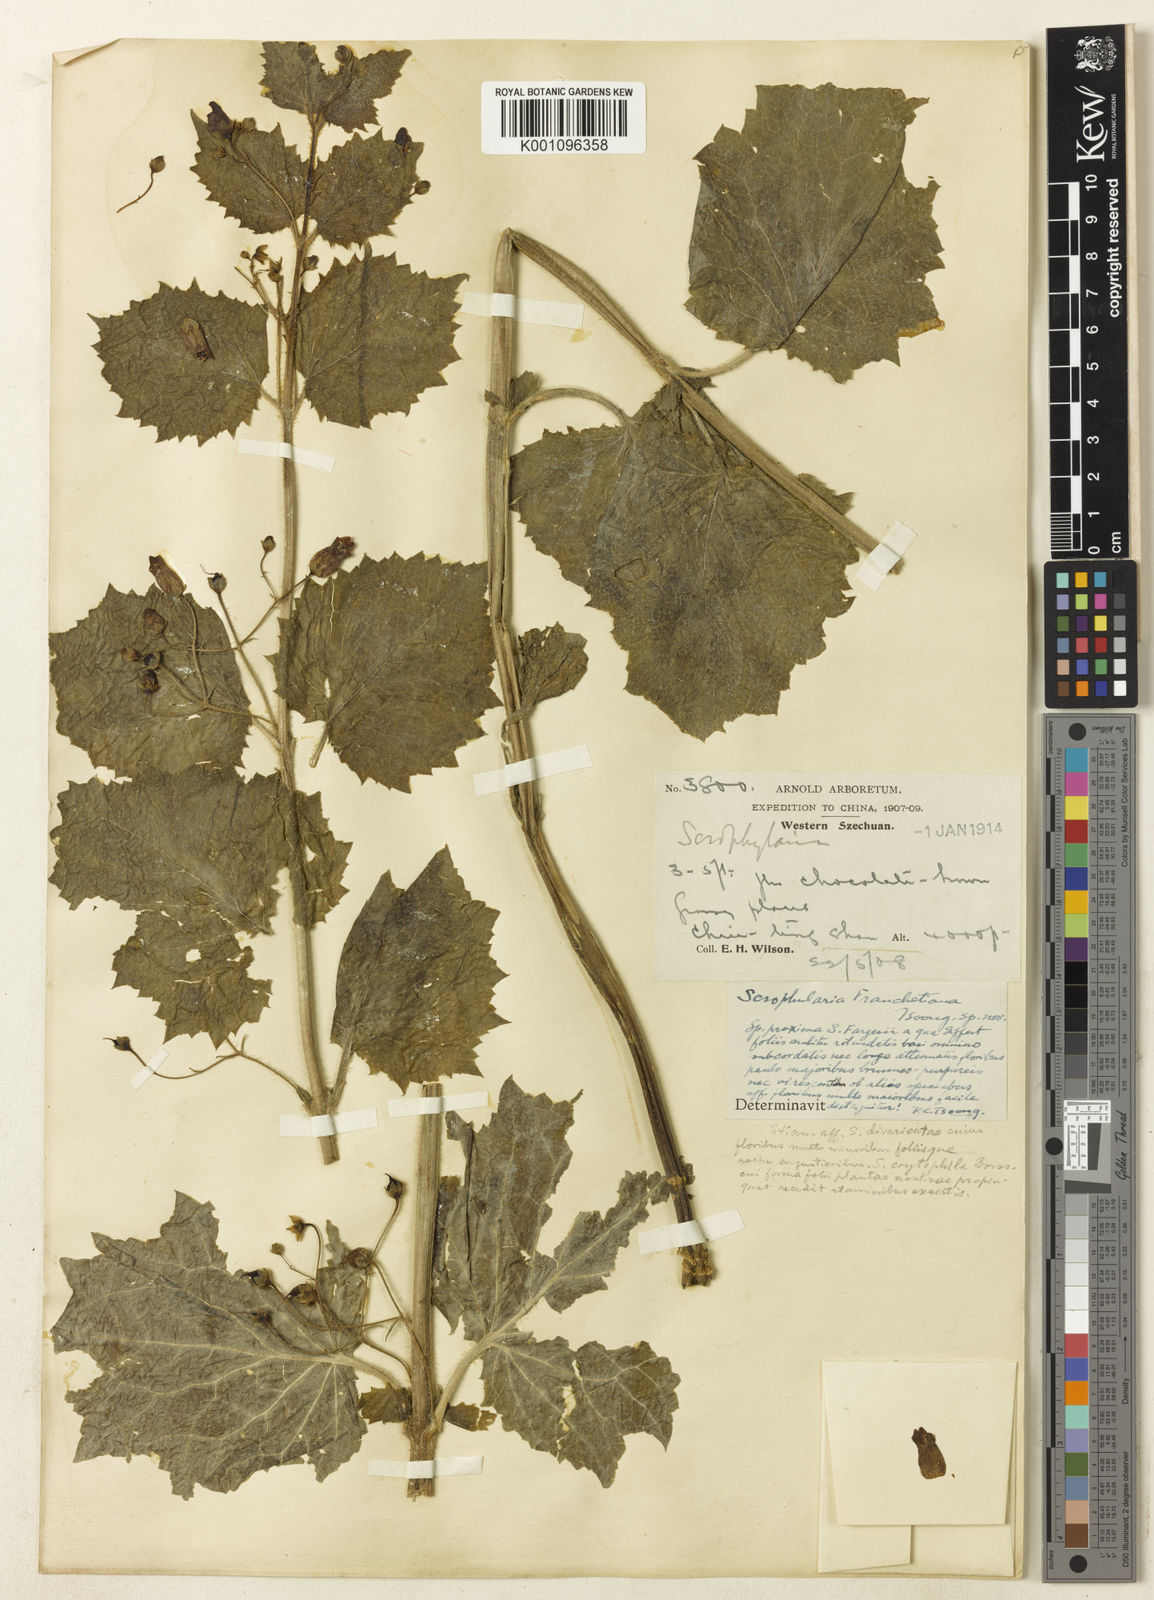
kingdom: Plantae
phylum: Tracheophyta
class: Magnoliopsida
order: Lamiales
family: Scrophulariaceae
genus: Scrophularia
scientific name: Scrophularia
